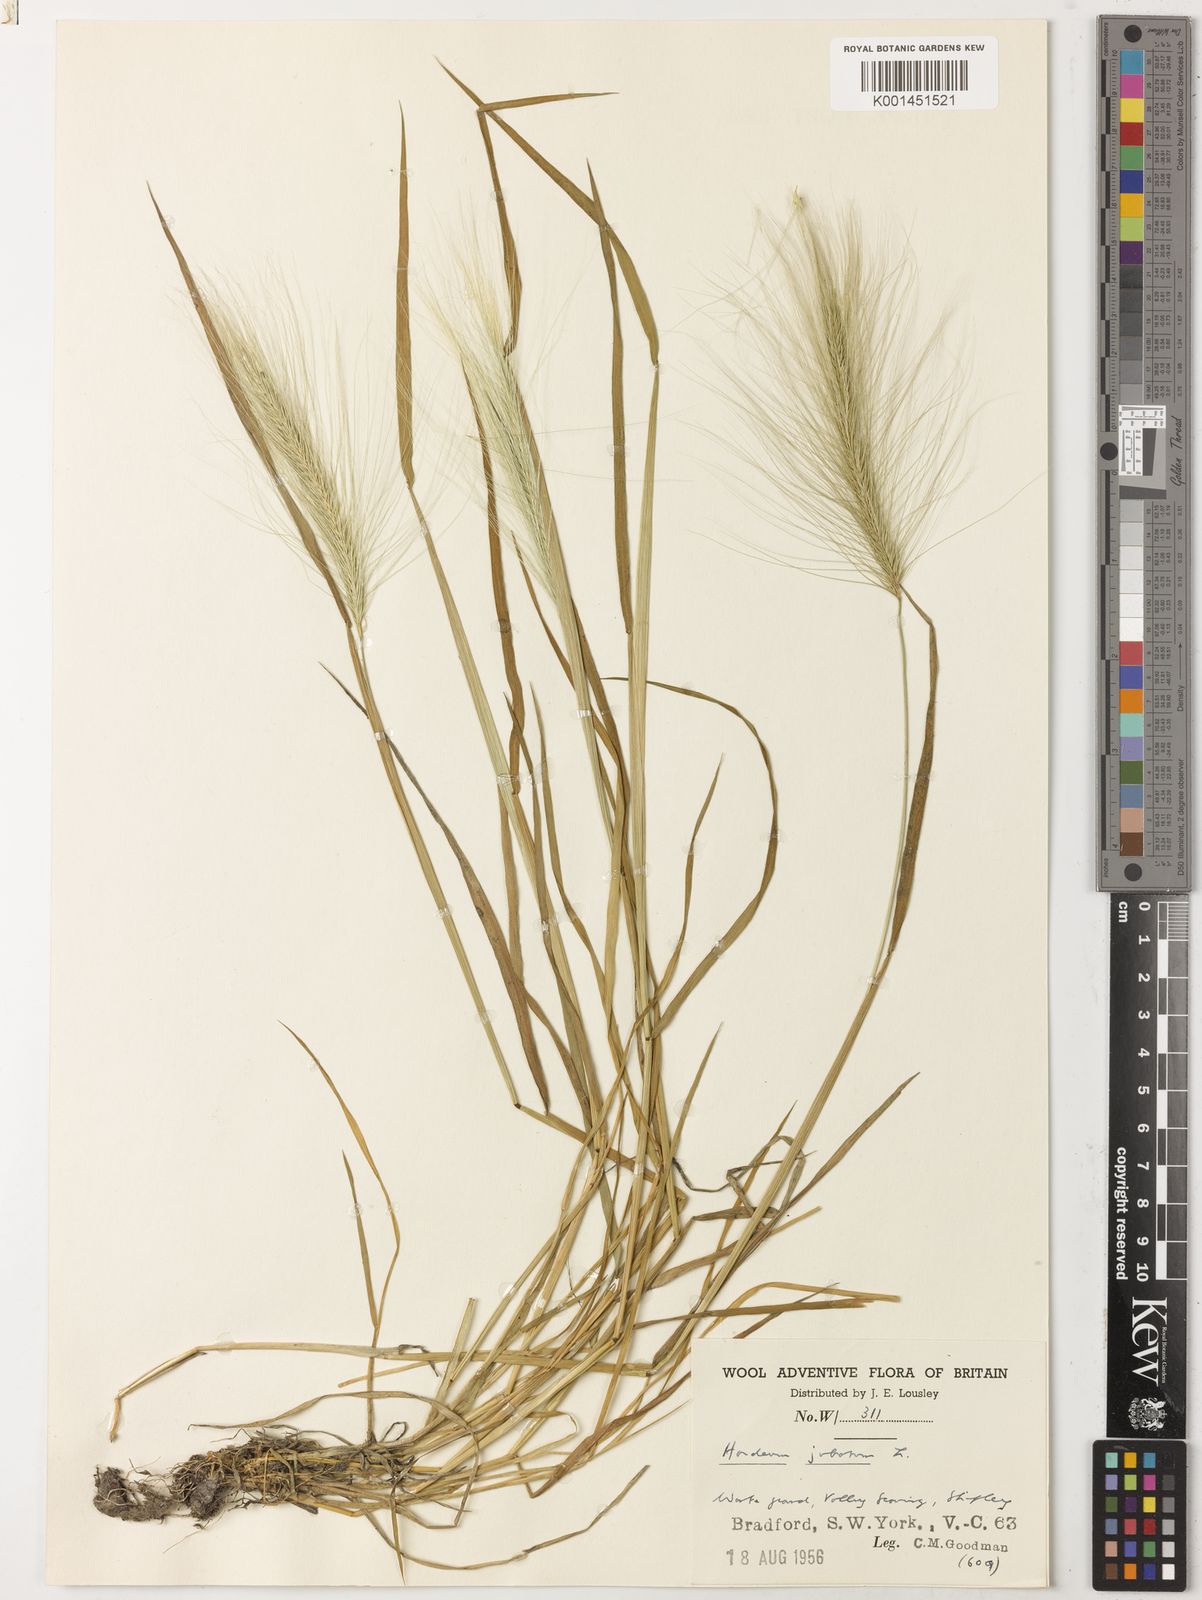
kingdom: Plantae
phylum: Tracheophyta
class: Liliopsida
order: Poales
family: Poaceae
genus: Hordeum
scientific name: Hordeum jubatum
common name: Foxtail barley
